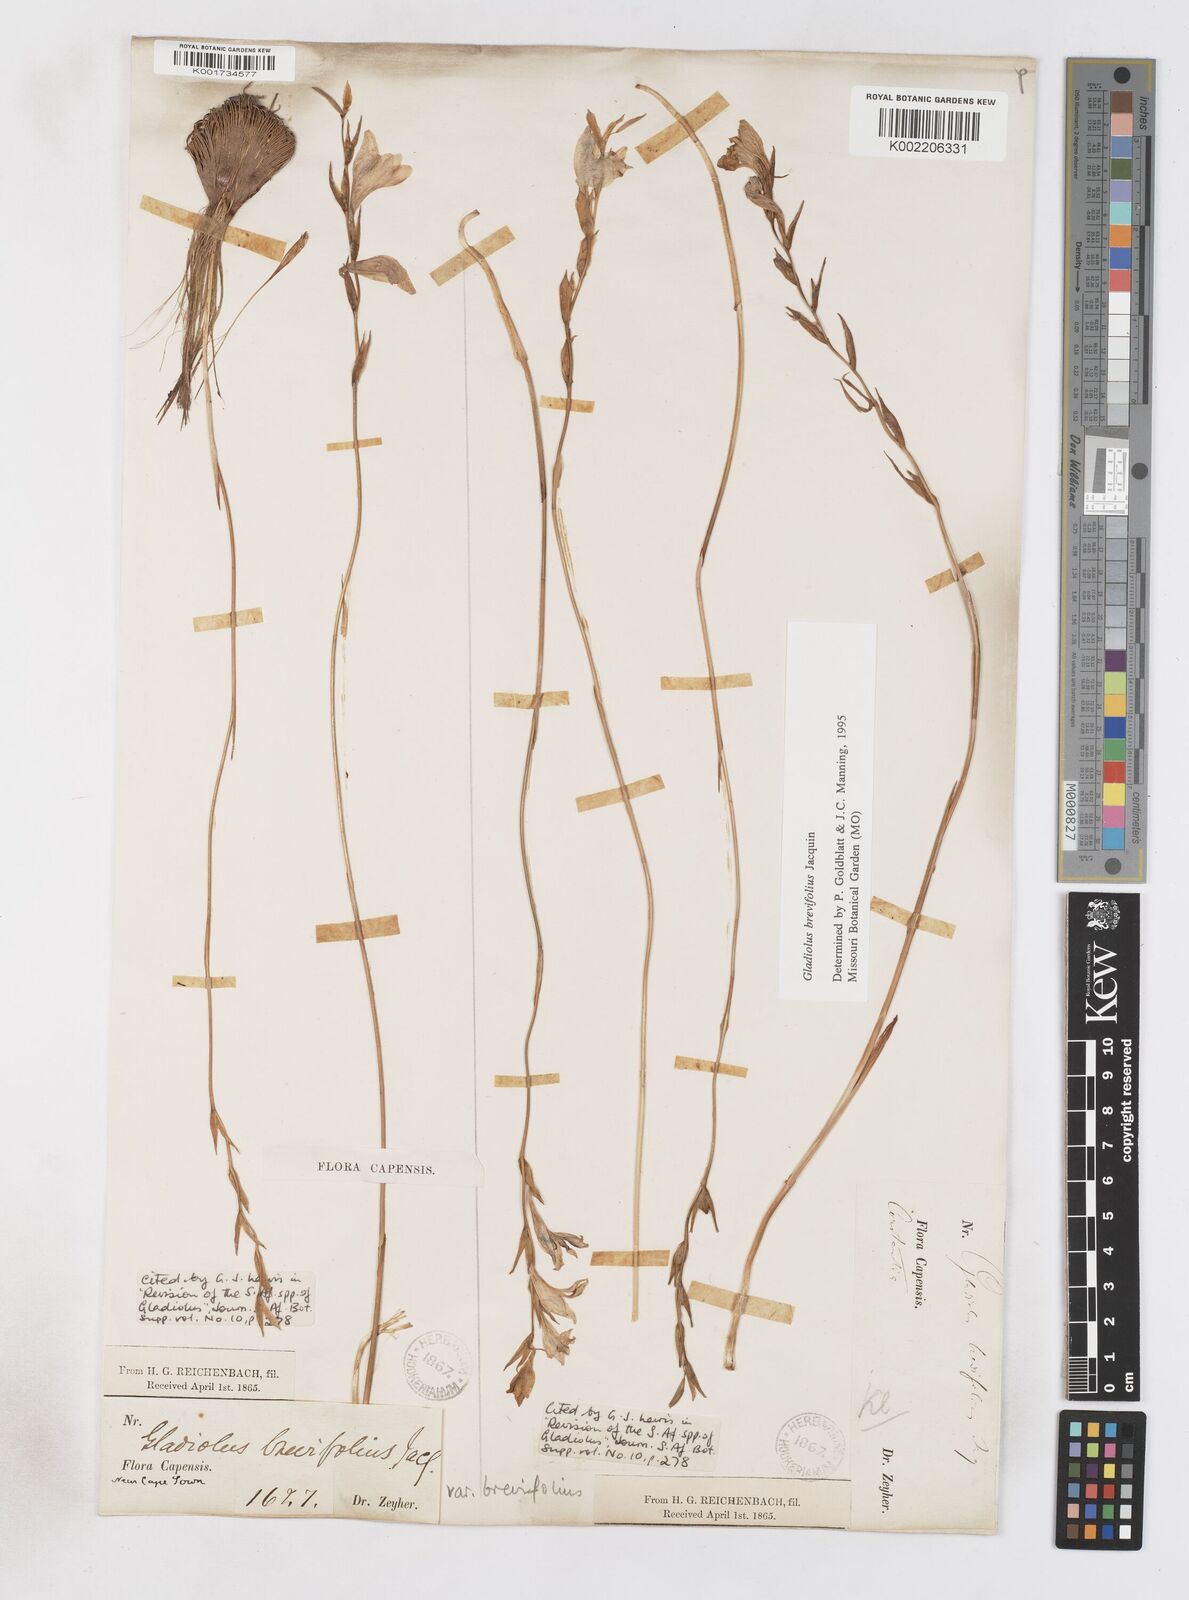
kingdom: Plantae
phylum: Tracheophyta
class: Liliopsida
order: Asparagales
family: Iridaceae
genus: Gladiolus
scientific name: Gladiolus brevifolius
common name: March pypie
